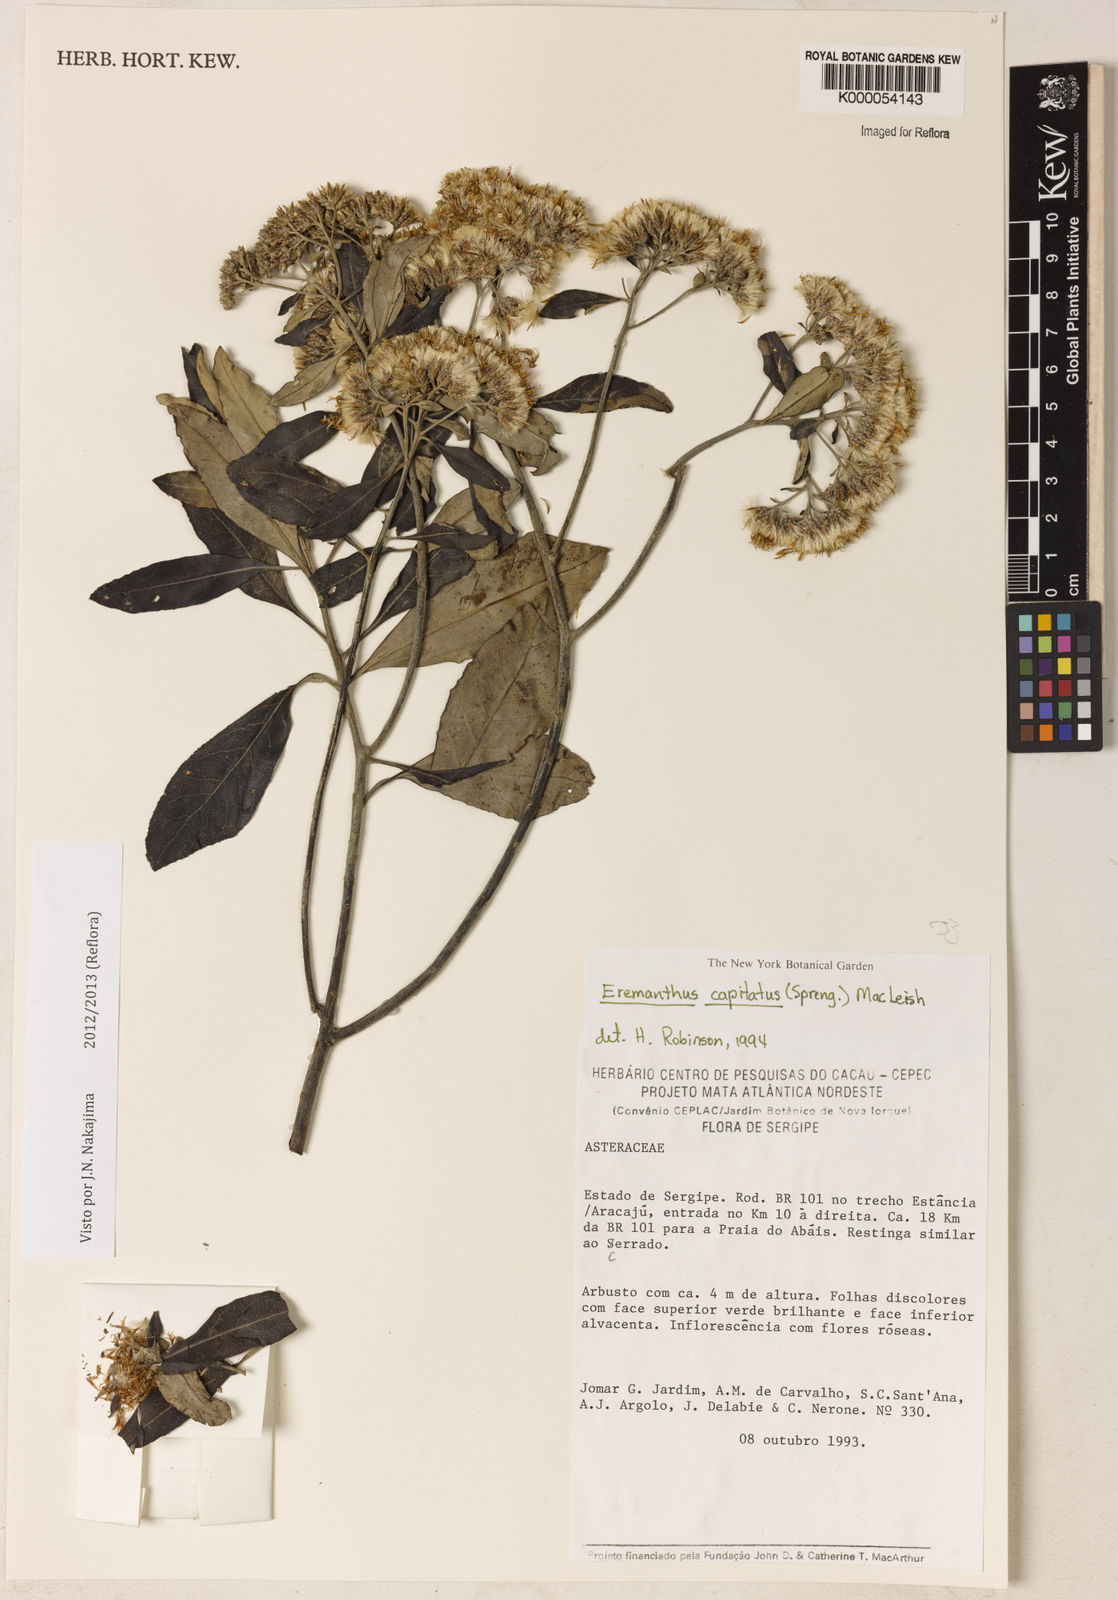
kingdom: Plantae
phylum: Tracheophyta
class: Magnoliopsida
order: Asterales
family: Asteraceae
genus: Eremanthus
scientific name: Eremanthus capitatus
